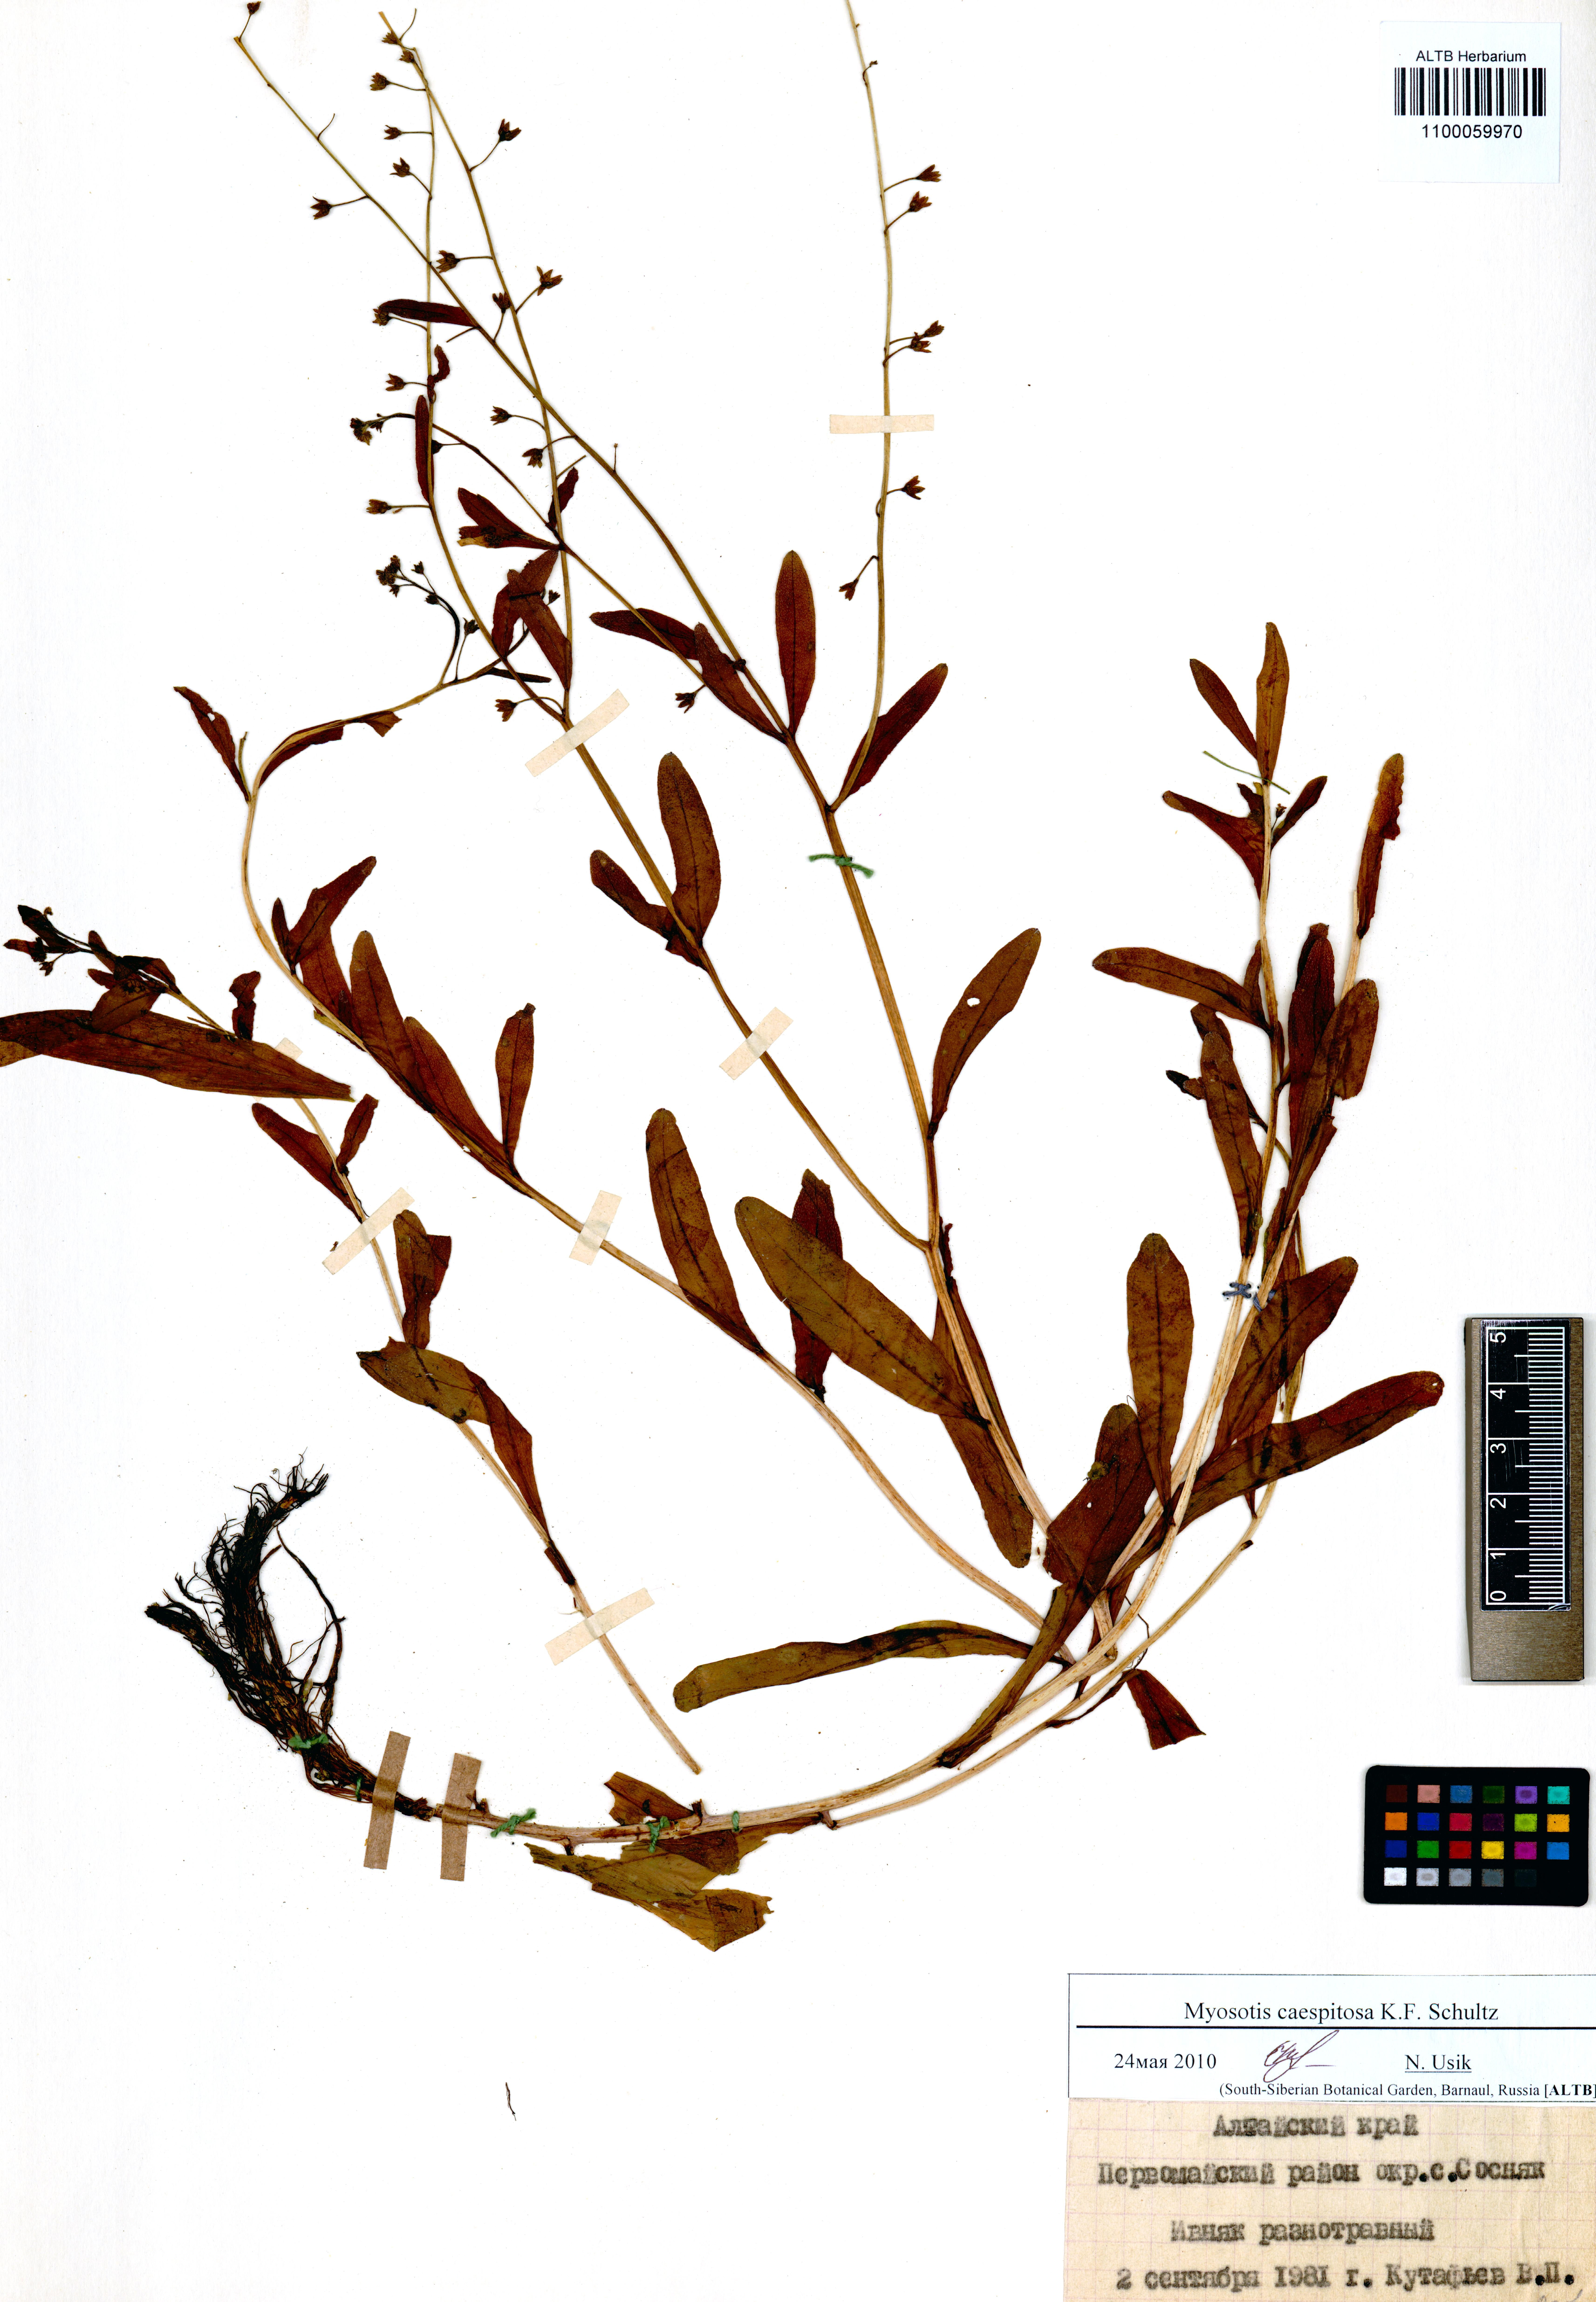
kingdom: Plantae
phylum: Tracheophyta
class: Magnoliopsida
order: Boraginales
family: Boraginaceae
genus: Myosotis
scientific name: Myosotis laxa
